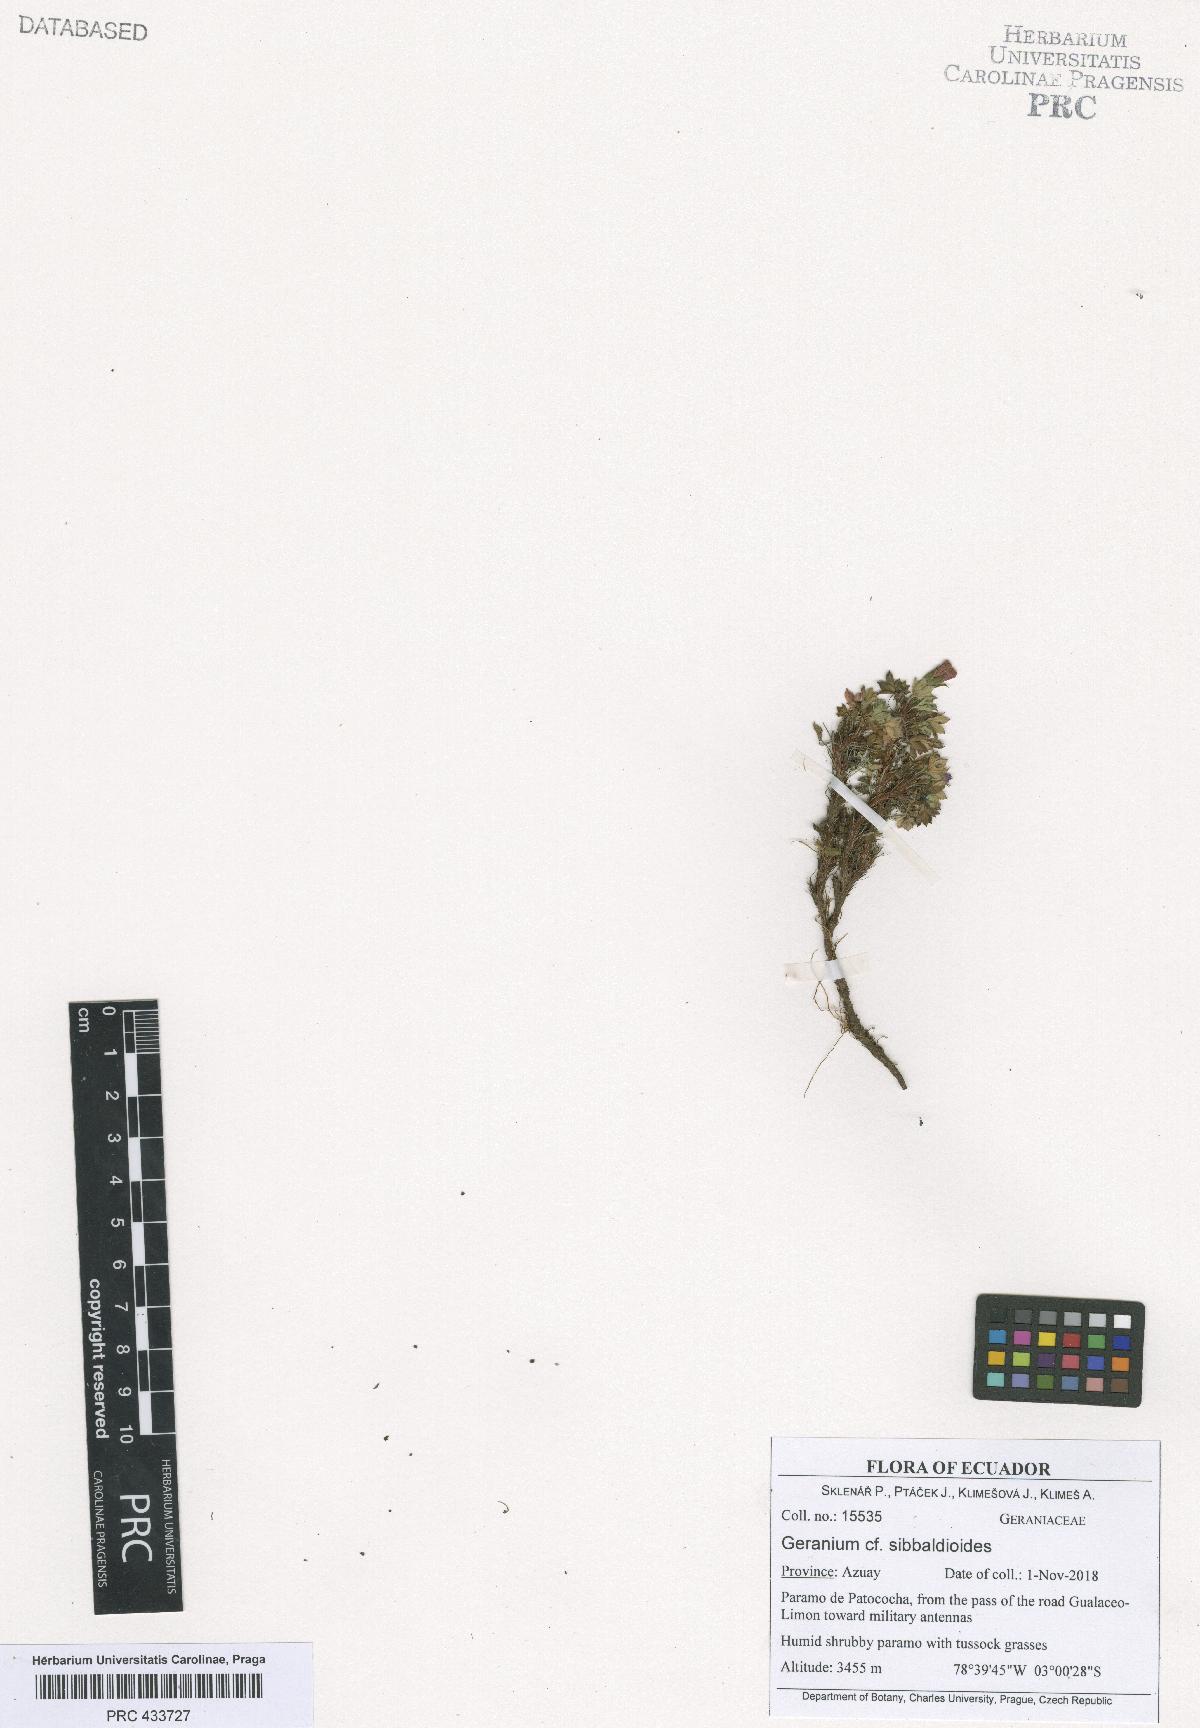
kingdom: Plantae
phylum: Tracheophyta
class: Magnoliopsida
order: Geraniales
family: Geraniaceae
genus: Geranium
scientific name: Geranium sibbaldioides
